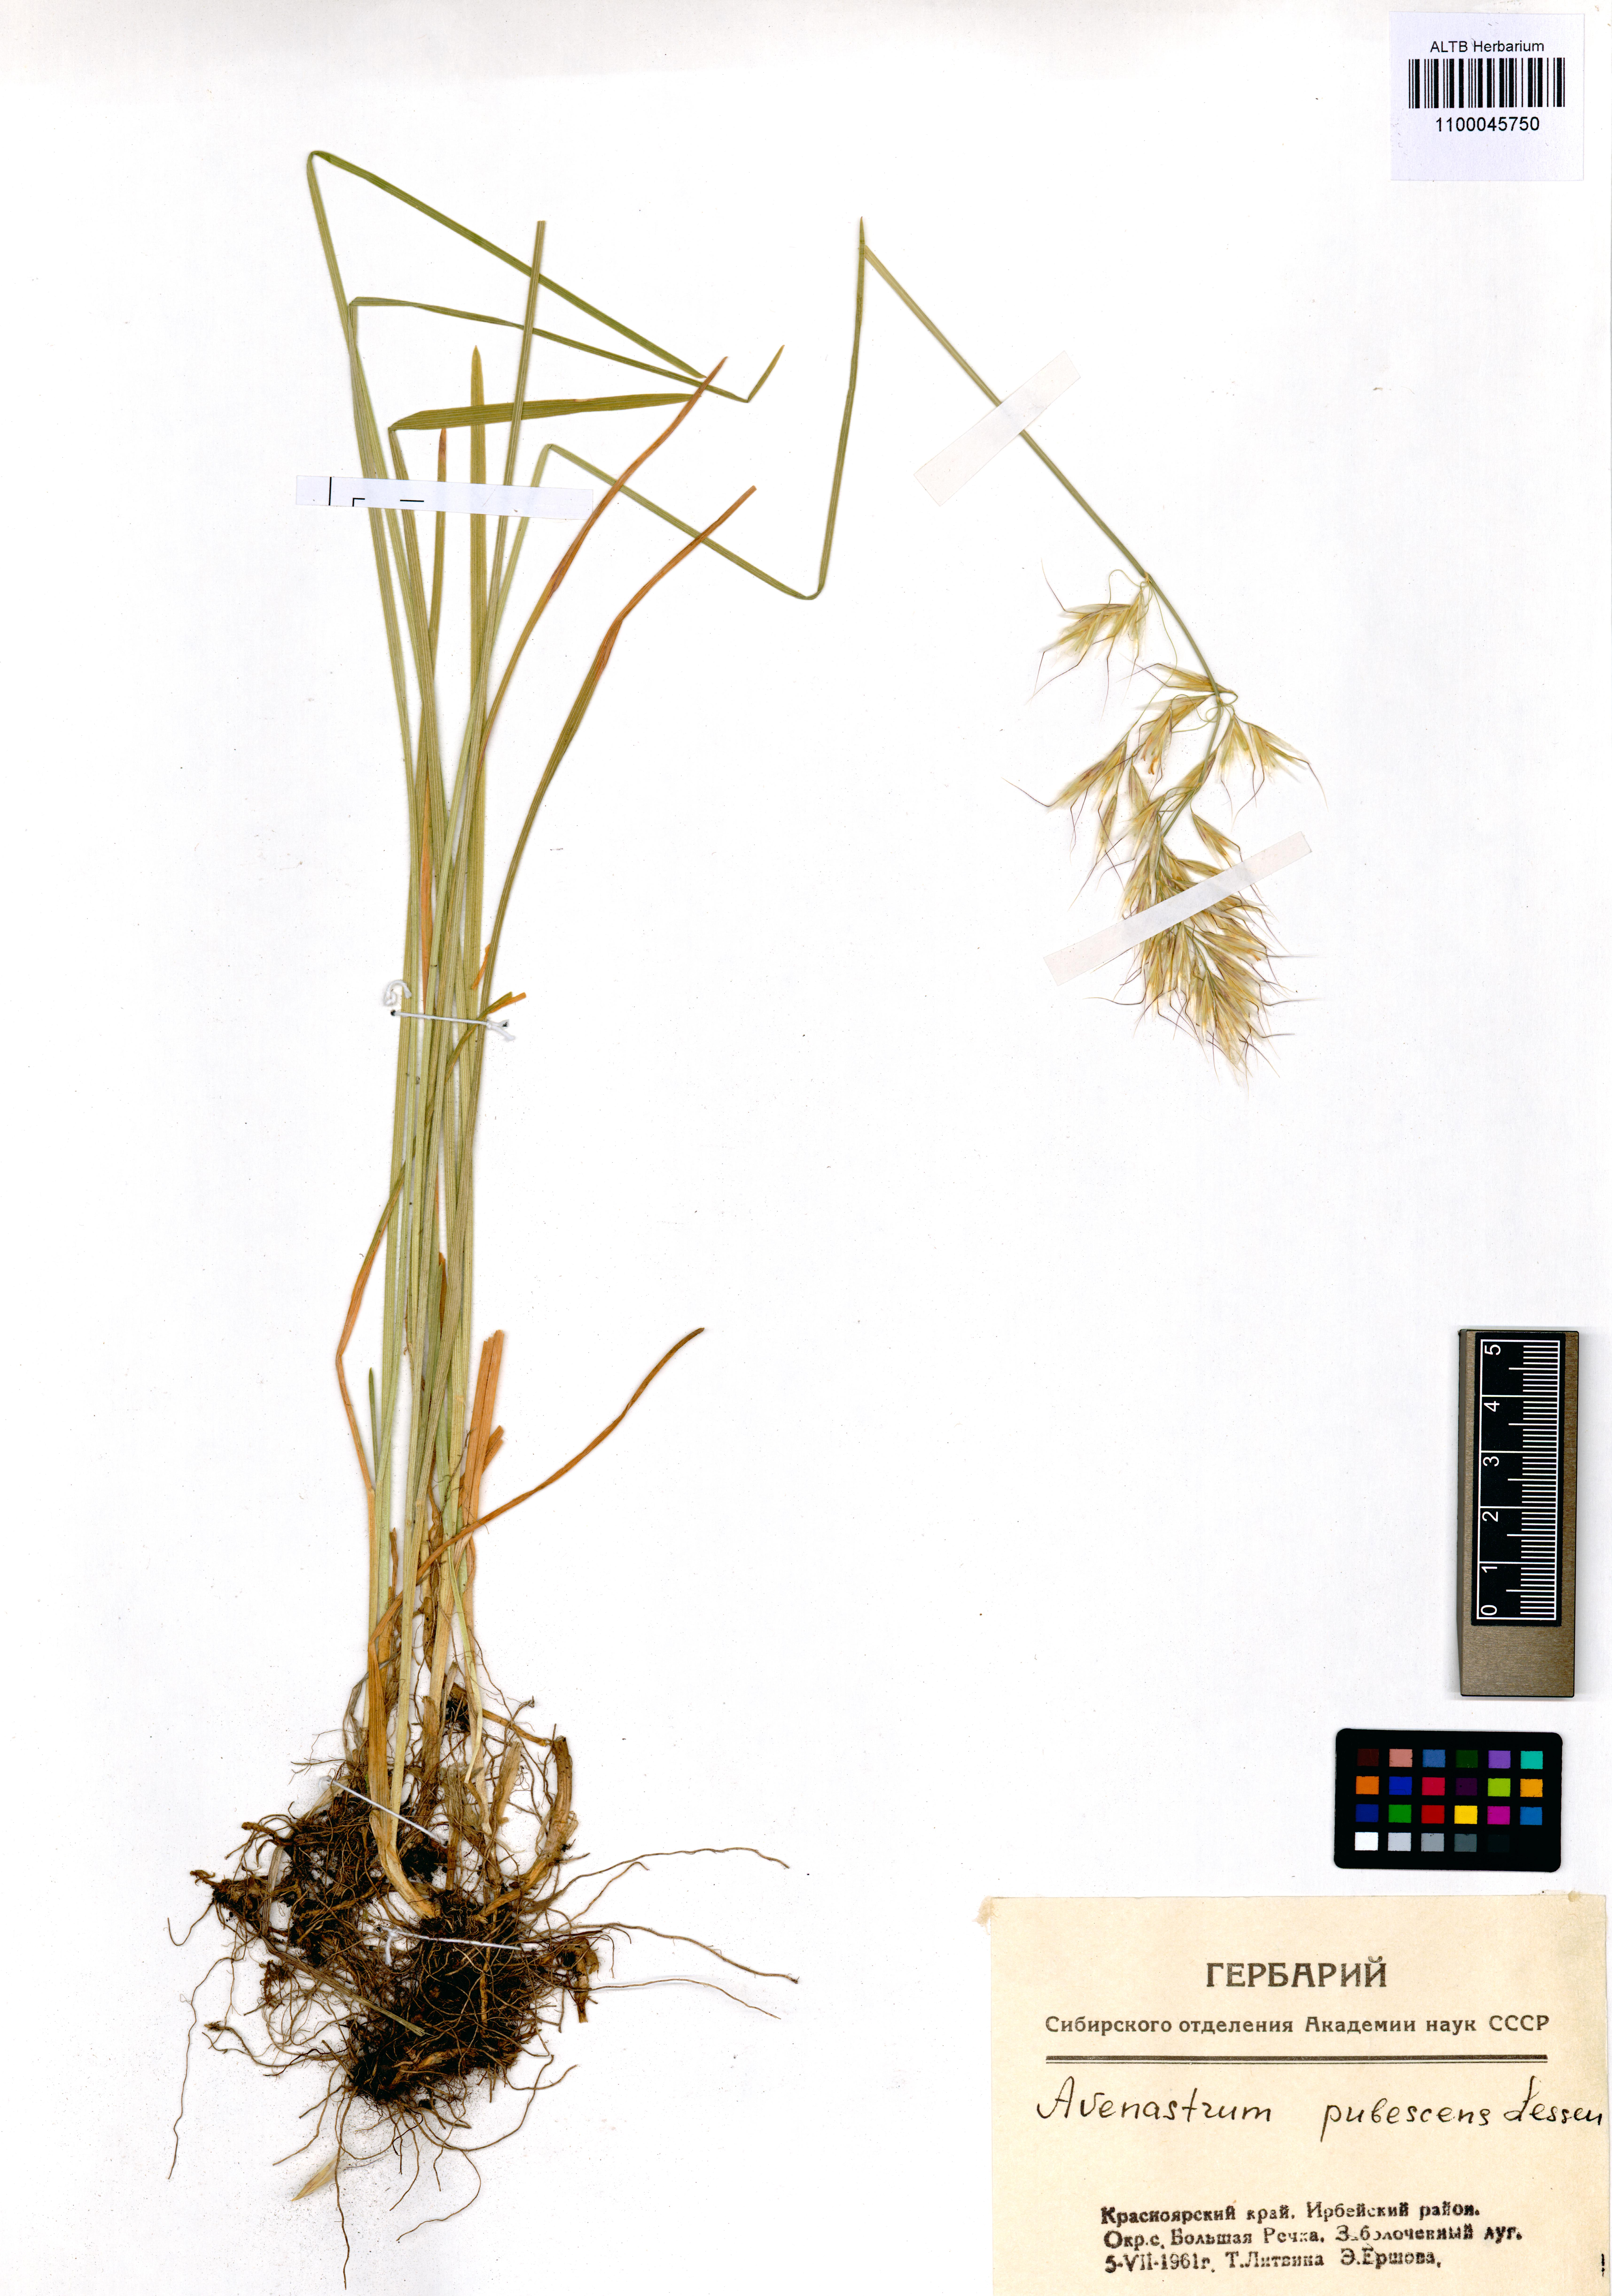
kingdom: Plantae
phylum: Tracheophyta
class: Liliopsida
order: Poales
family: Poaceae
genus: Avenula
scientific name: Avenula pubescens
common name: Downy alpine oatgrass
